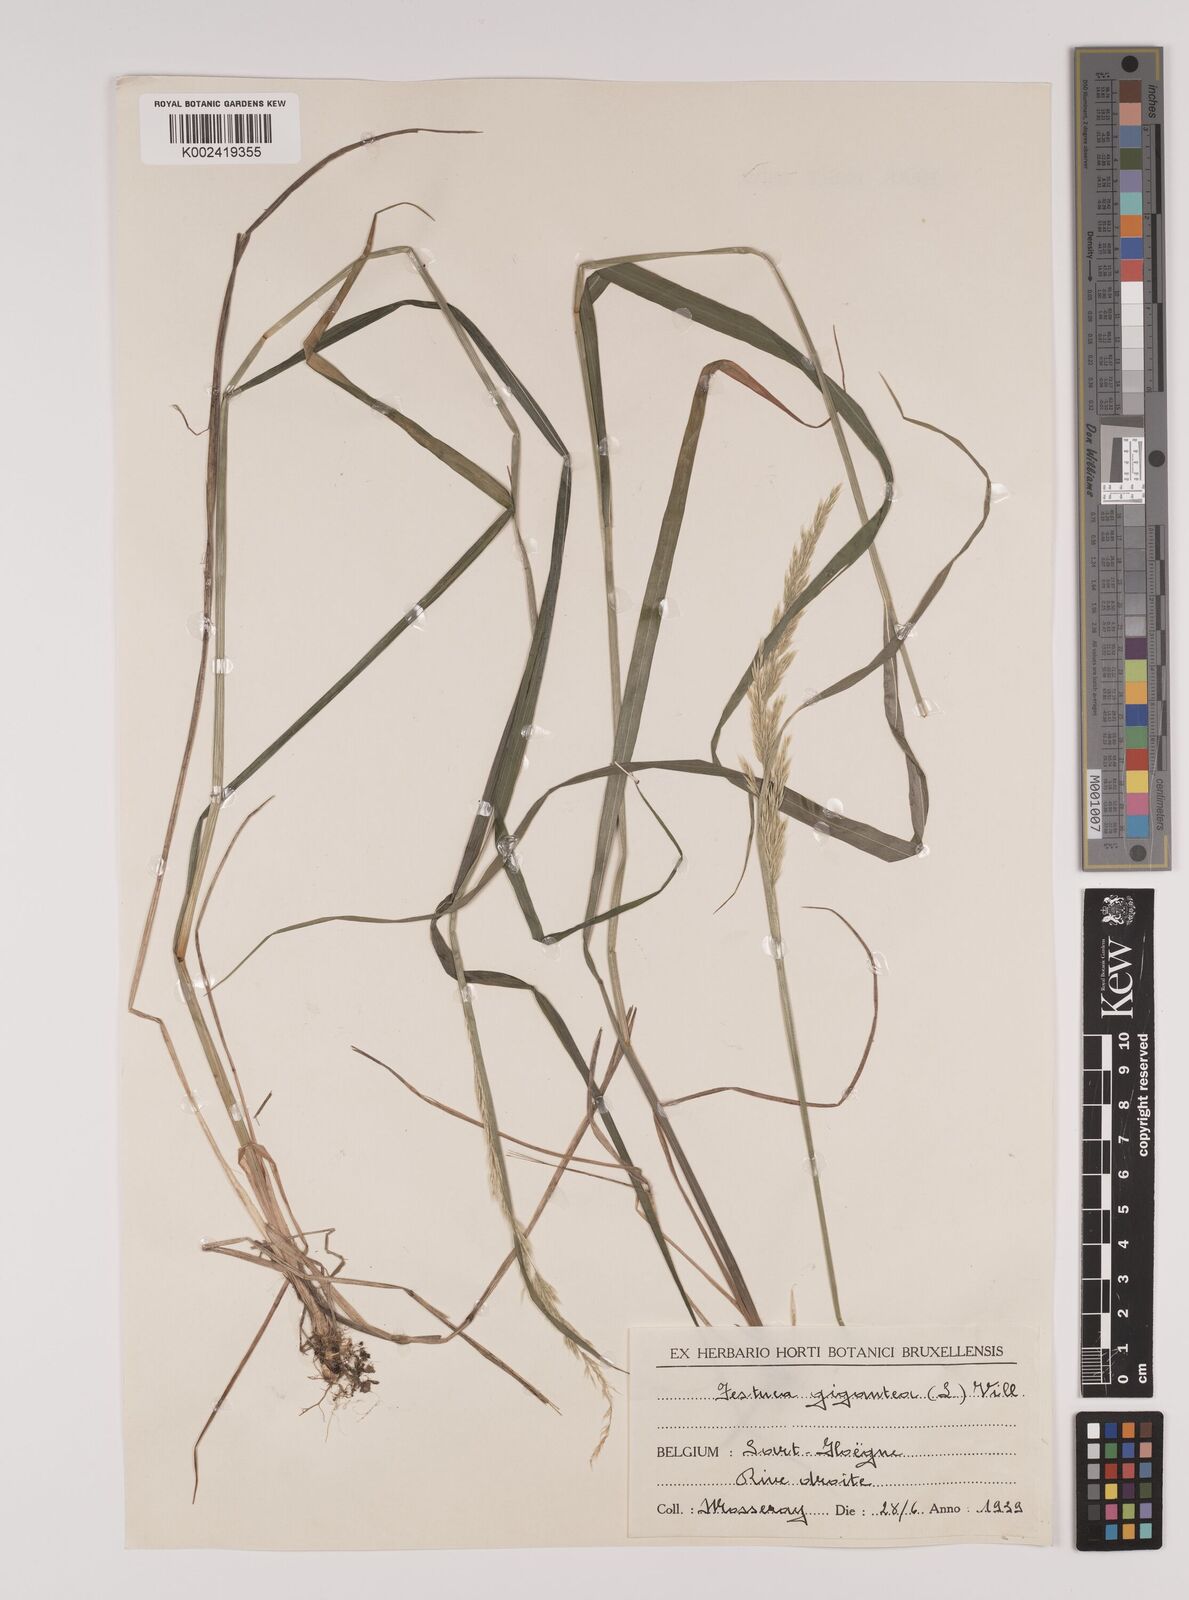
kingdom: Plantae
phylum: Tracheophyta
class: Liliopsida
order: Poales
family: Poaceae
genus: Lolium
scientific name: Lolium giganteum
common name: Giant fescue
